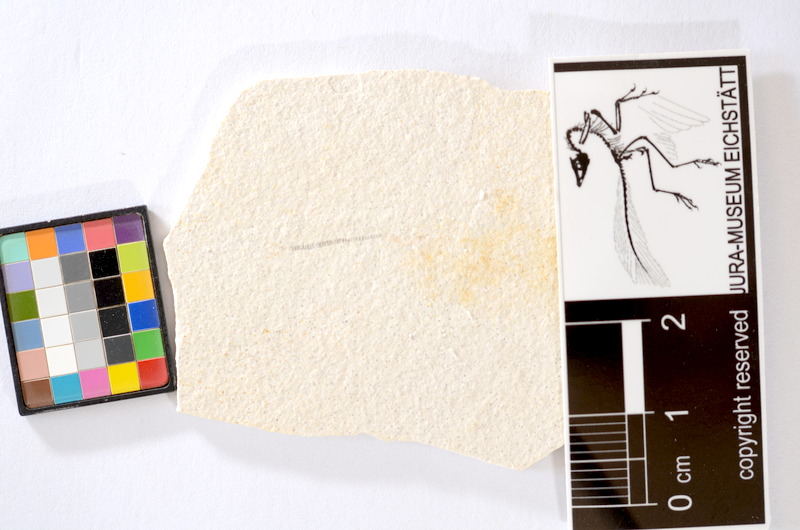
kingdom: Animalia
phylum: Chordata
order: Salmoniformes
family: Orthogonikleithridae
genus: Orthogonikleithrus
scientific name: Orthogonikleithrus hoelli
